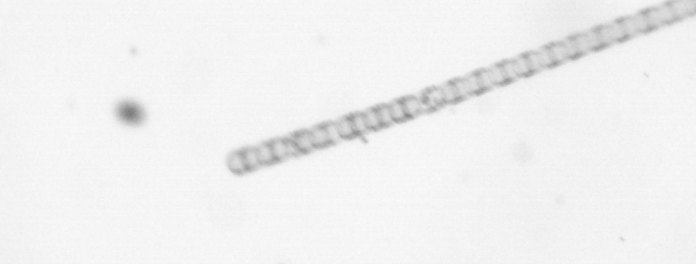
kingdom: Chromista
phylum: Ochrophyta
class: Bacillariophyceae
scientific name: Bacillariophyceae
